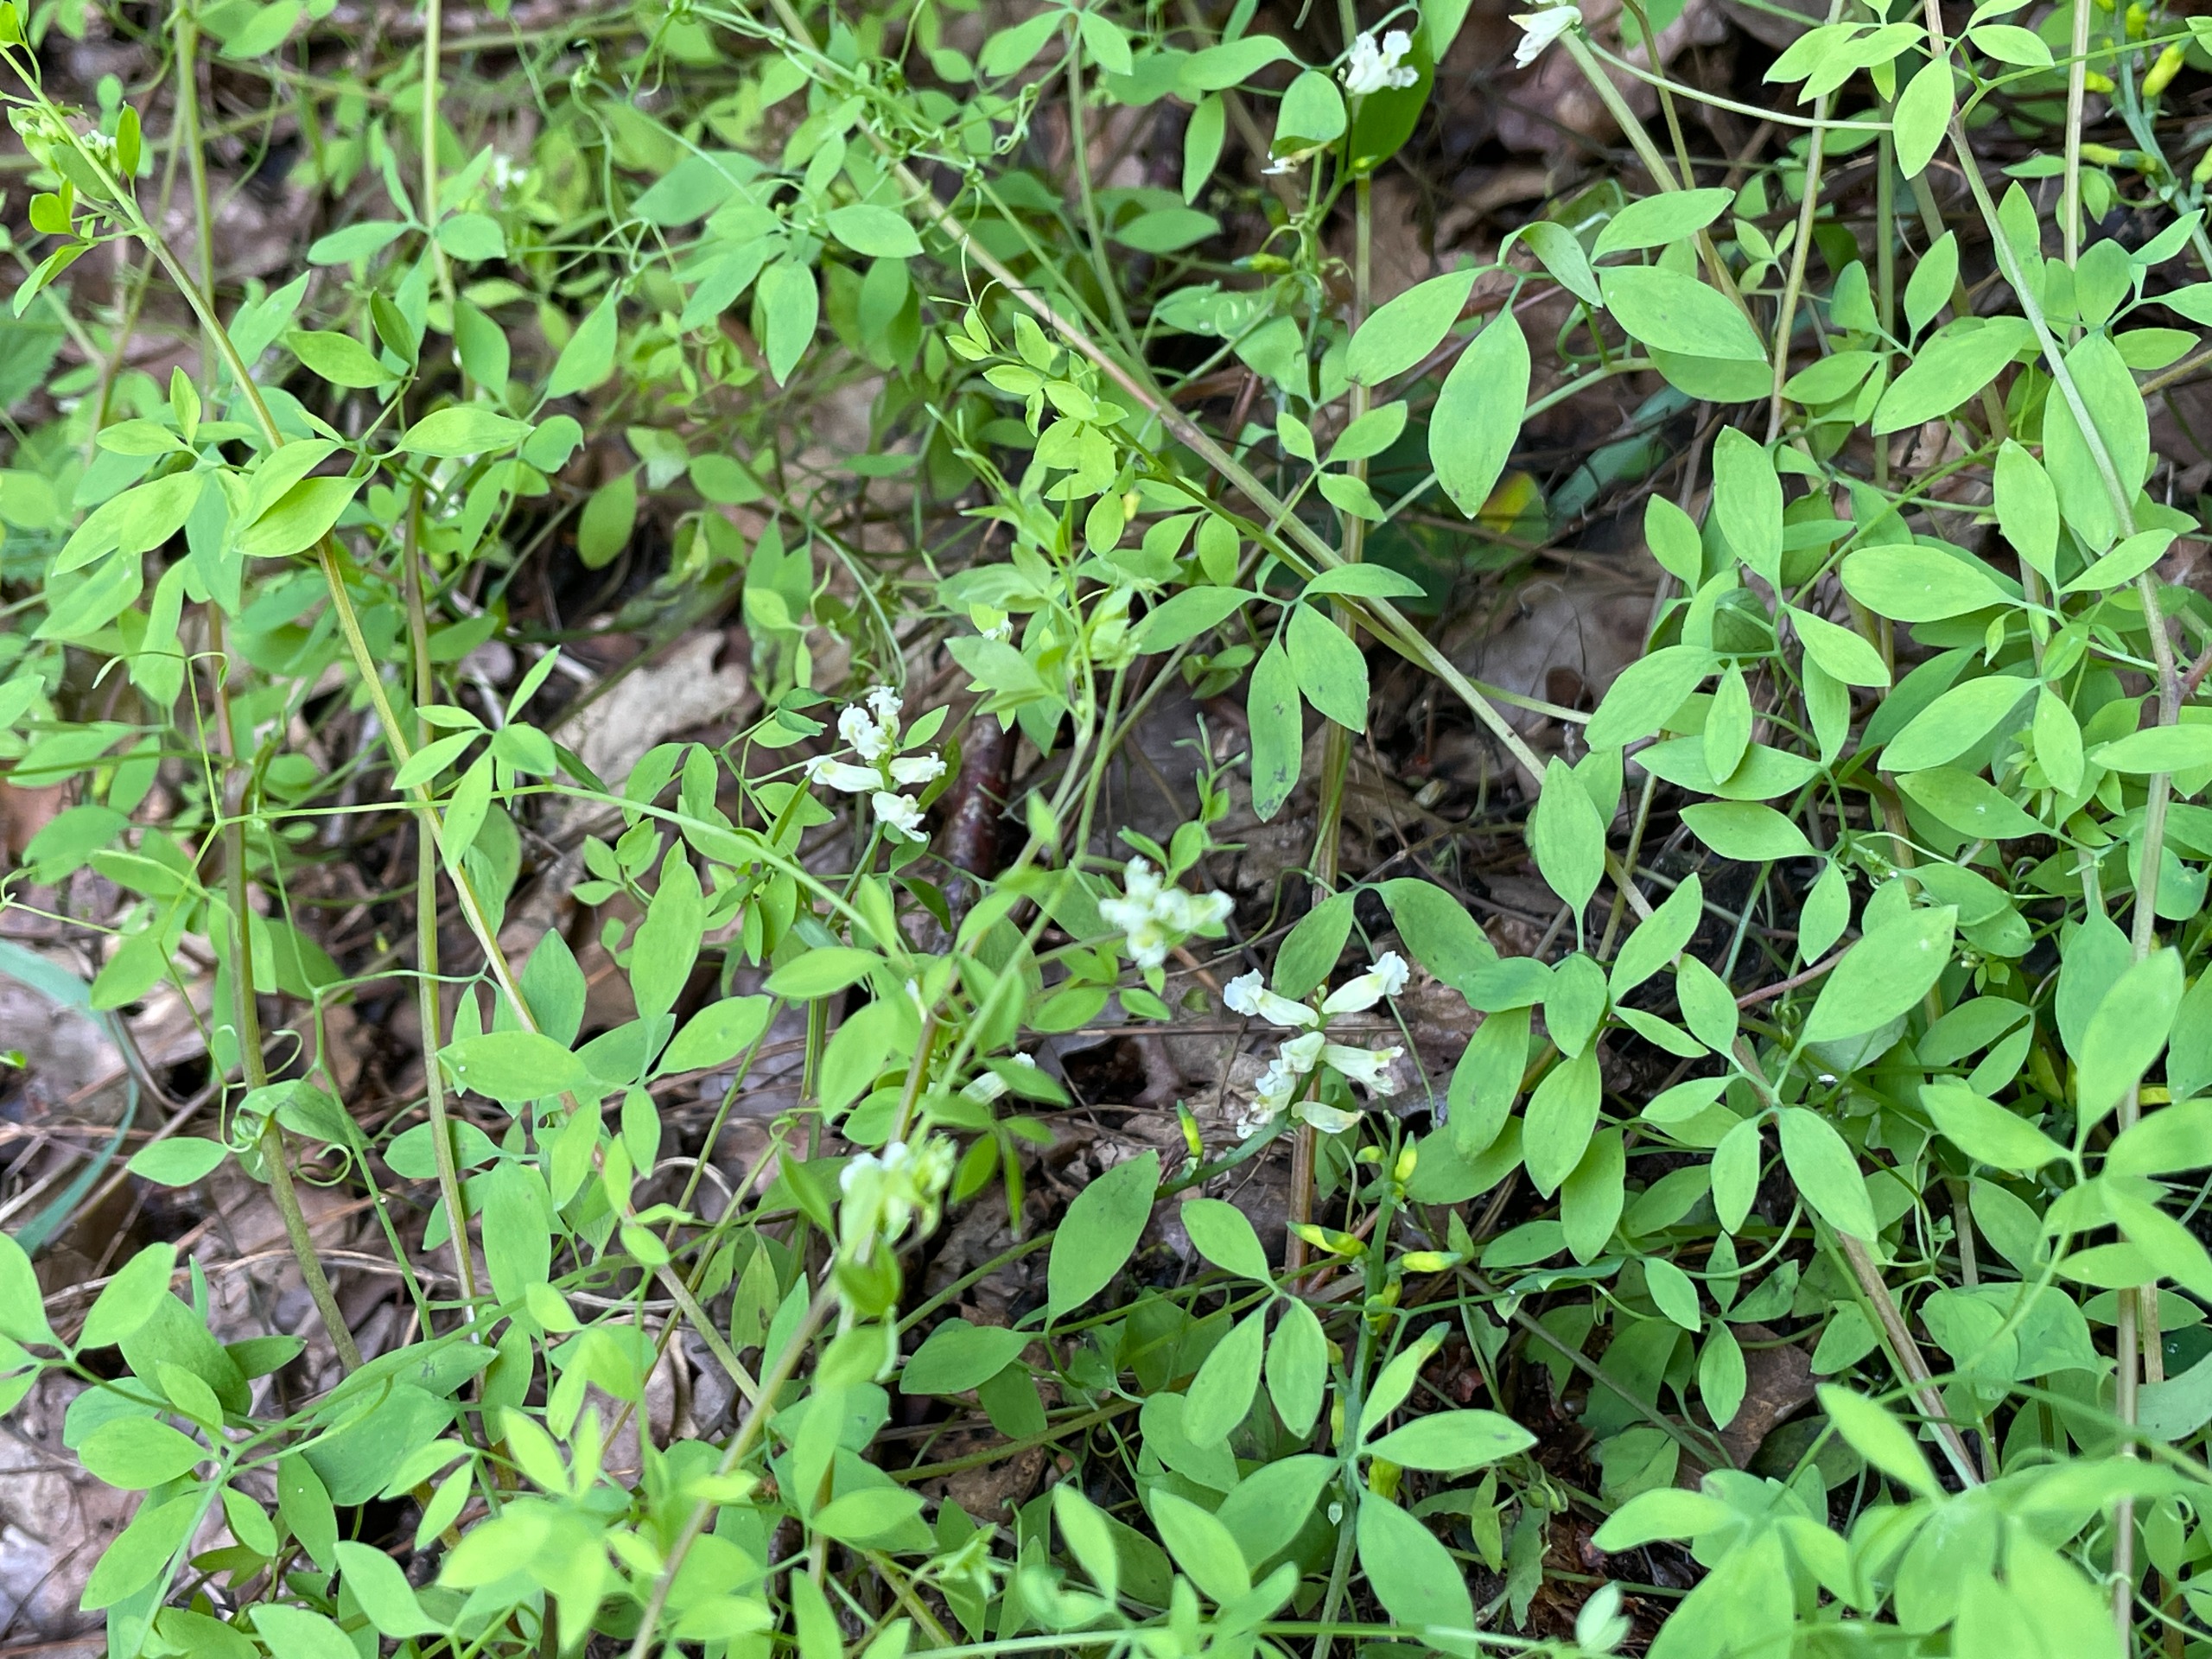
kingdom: Plantae
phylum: Tracheophyta
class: Magnoliopsida
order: Ranunculales
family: Papaveraceae
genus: Ceratocapnos
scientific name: Ceratocapnos claviculata
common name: Klatrende lærkespore
